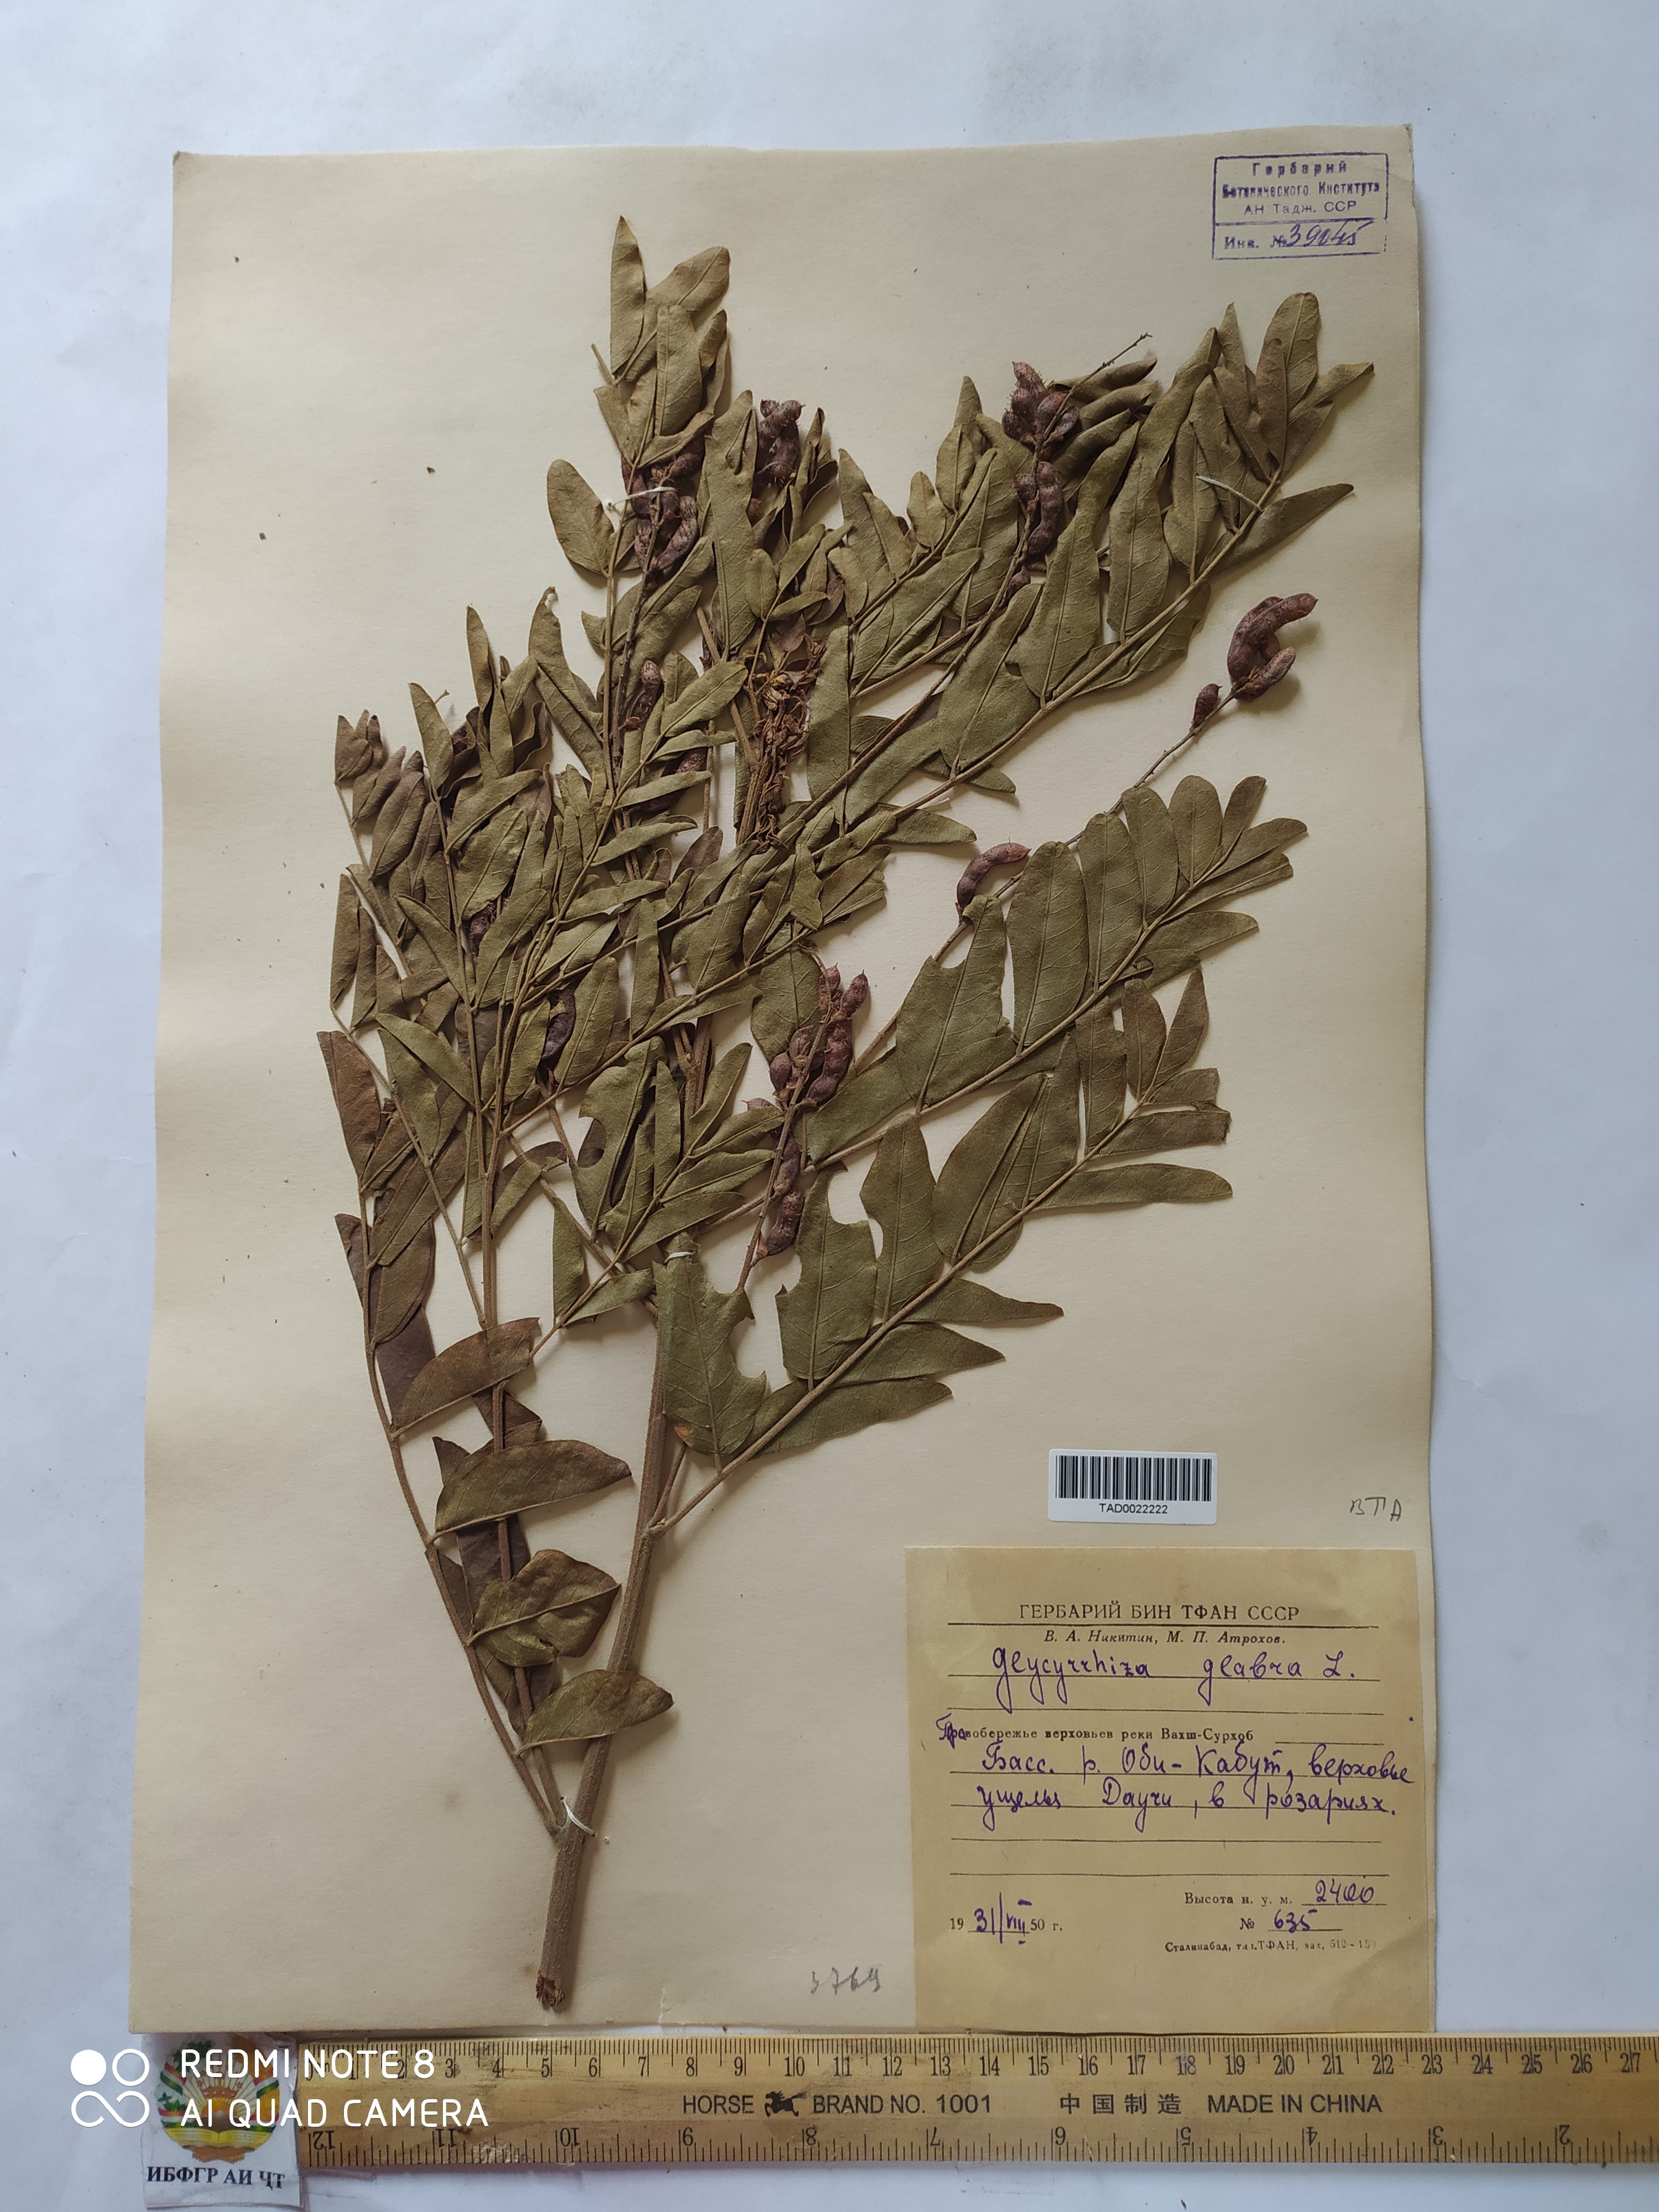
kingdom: Plantae
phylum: Tracheophyta
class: Magnoliopsida
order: Fabales
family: Fabaceae
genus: Glycyrrhiza
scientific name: Glycyrrhiza glabra
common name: Liquorice
